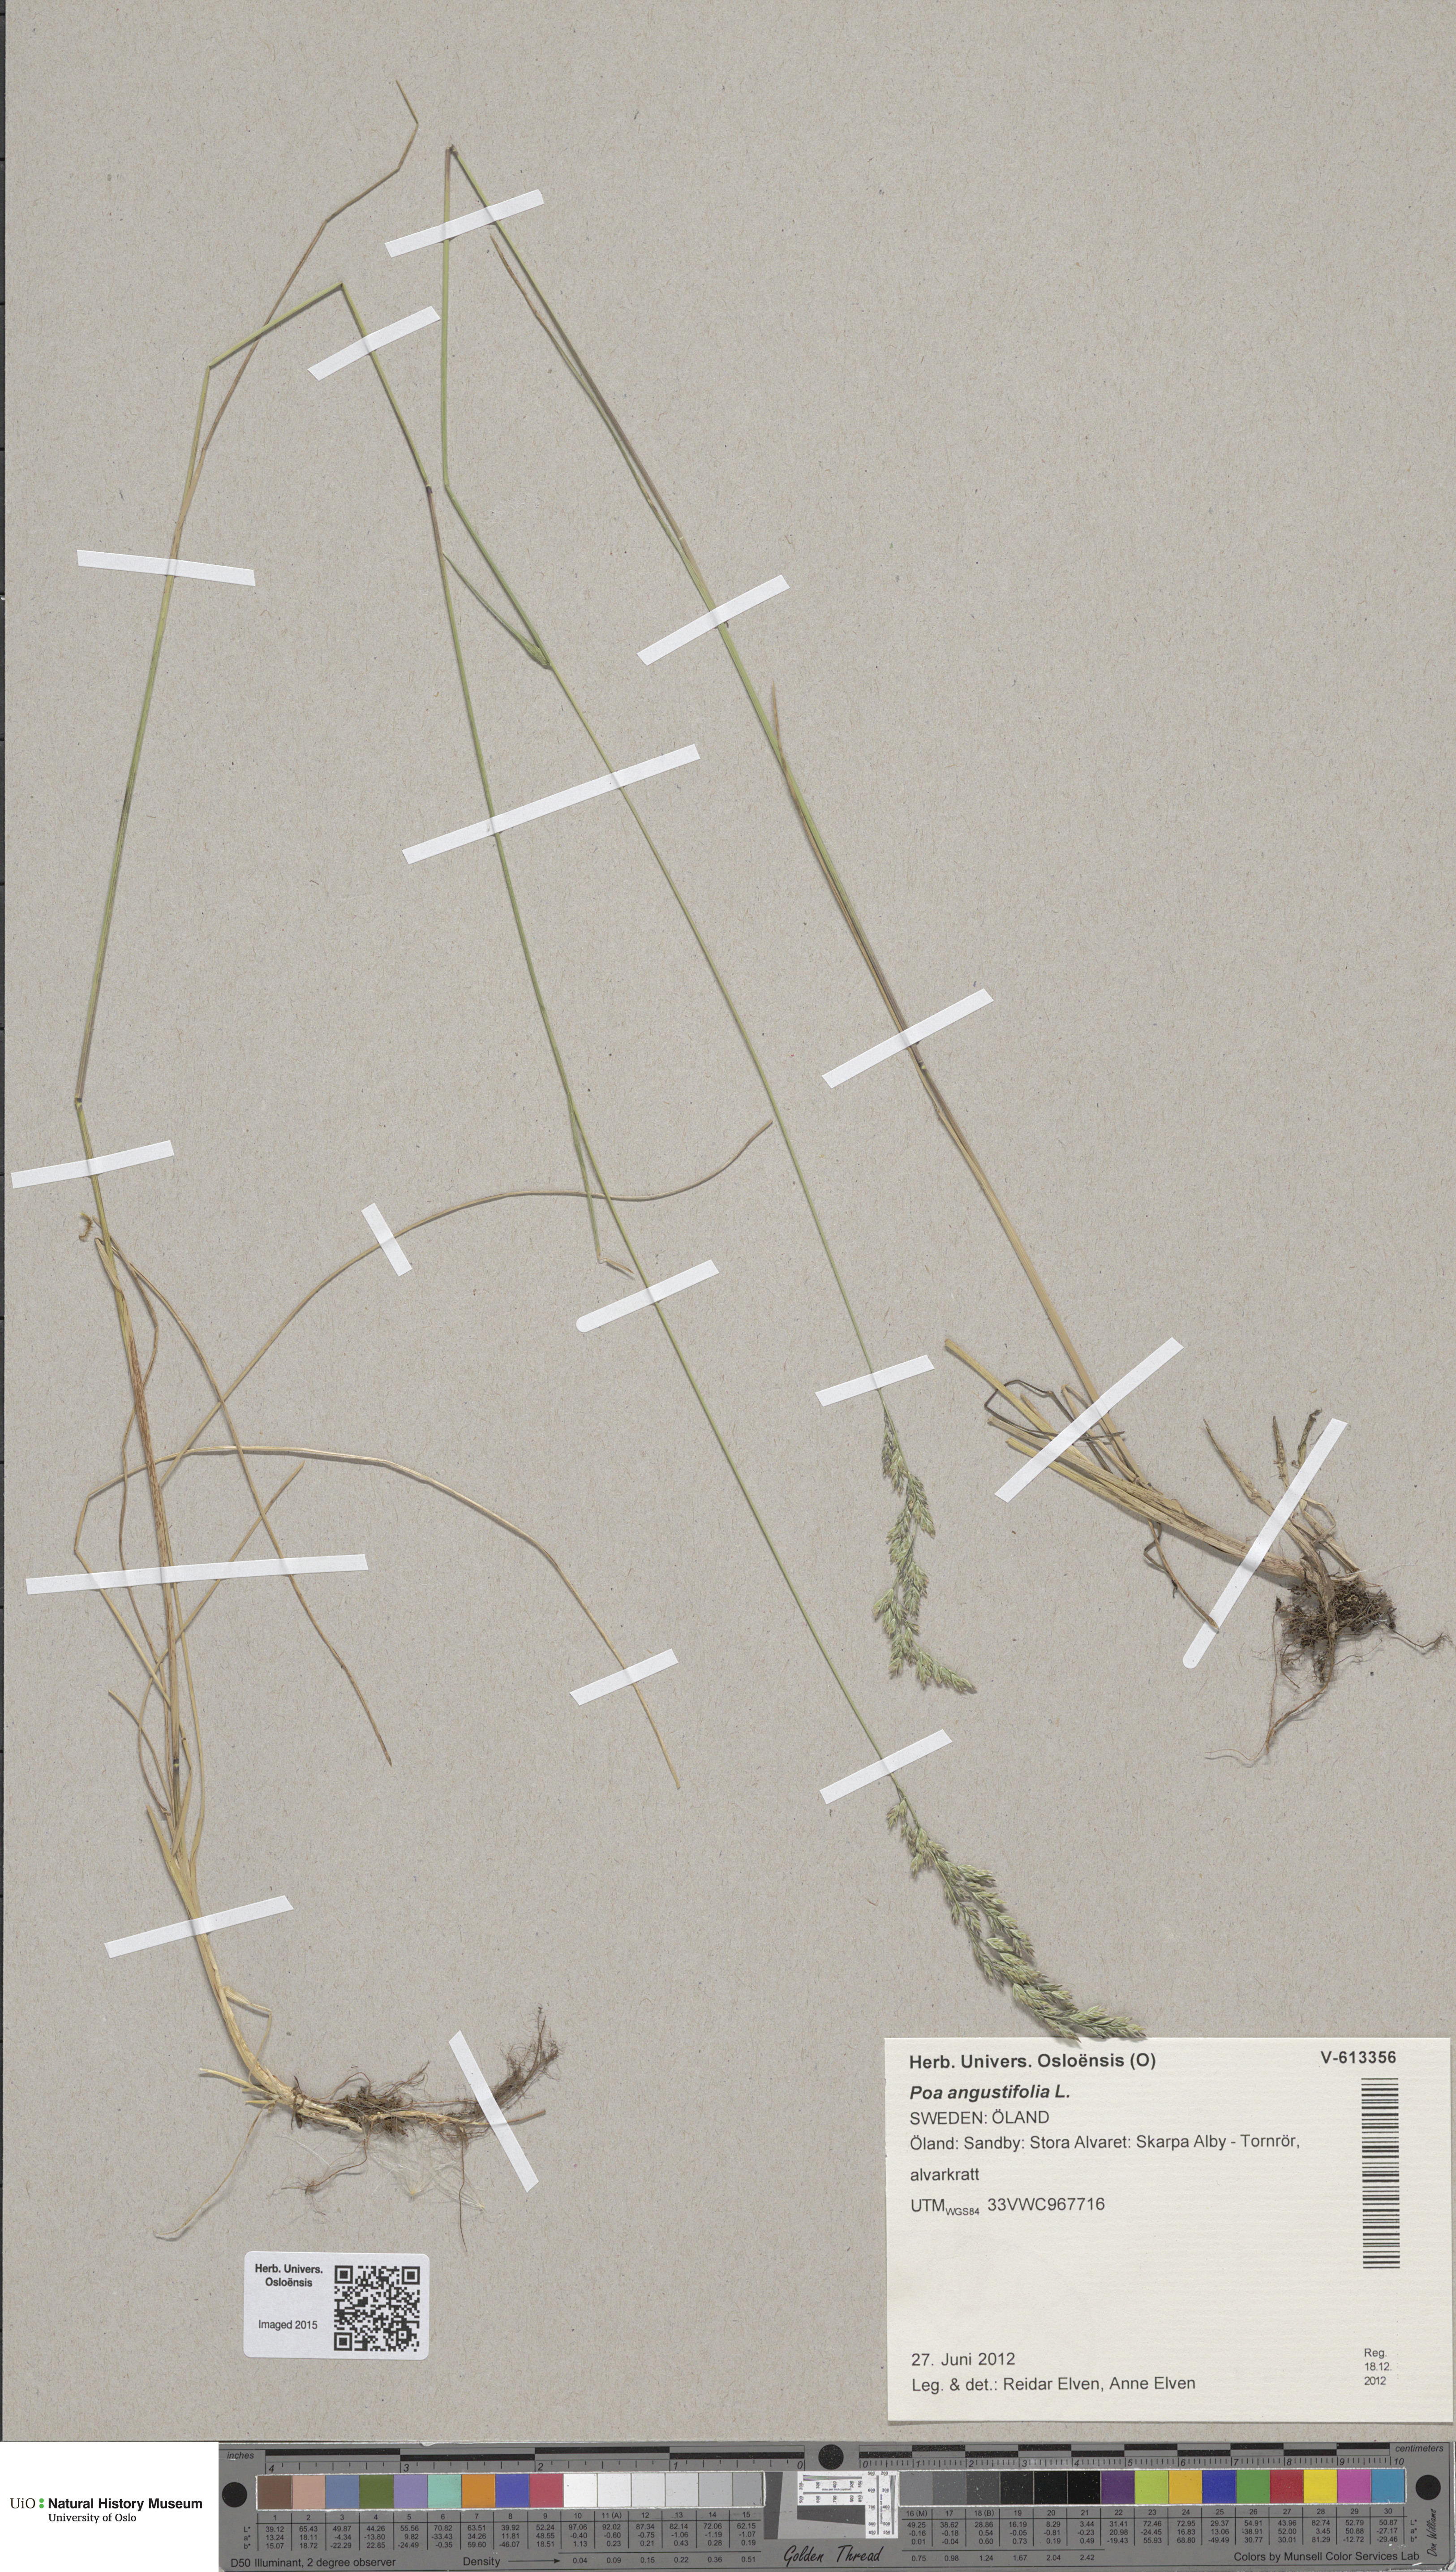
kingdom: Plantae
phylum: Tracheophyta
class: Liliopsida
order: Poales
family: Poaceae
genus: Poa
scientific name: Poa angustifolia
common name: Narrow-leaved meadow-grass
